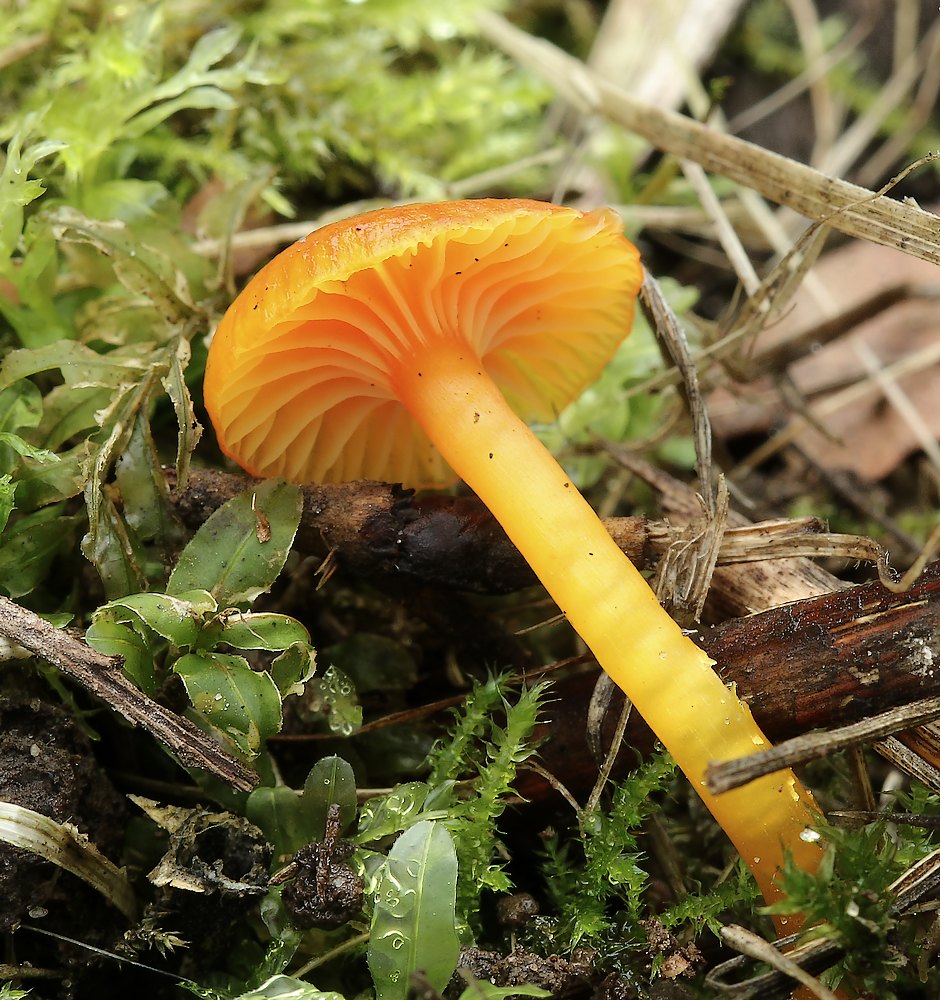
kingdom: Fungi
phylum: Basidiomycota
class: Agaricomycetes
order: Agaricales
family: Hygrophoraceae
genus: Hygrocybe
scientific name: Hygrocybe ceracea
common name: voksgul vokshat
